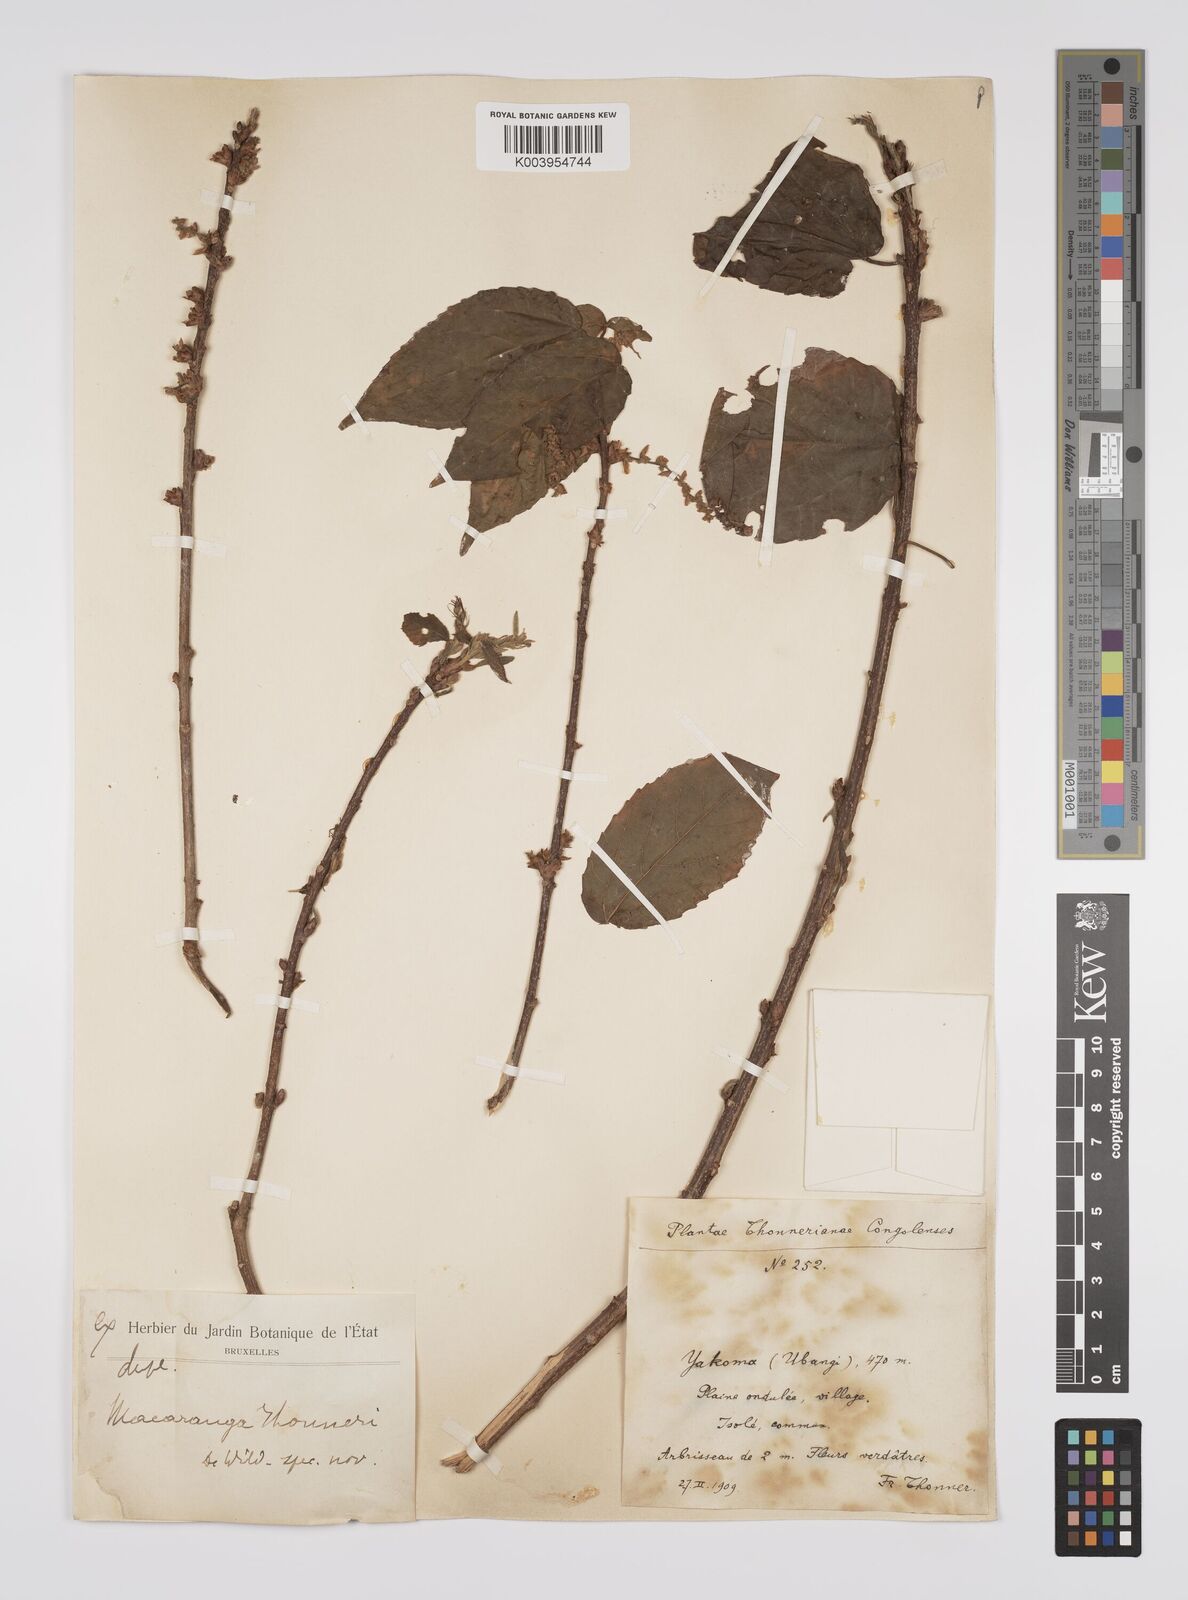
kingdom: Plantae
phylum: Tracheophyta
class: Magnoliopsida
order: Malpighiales
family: Euphorbiaceae
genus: Alchornea
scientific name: Alchornea laxiflora
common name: Lowveld bead-string
